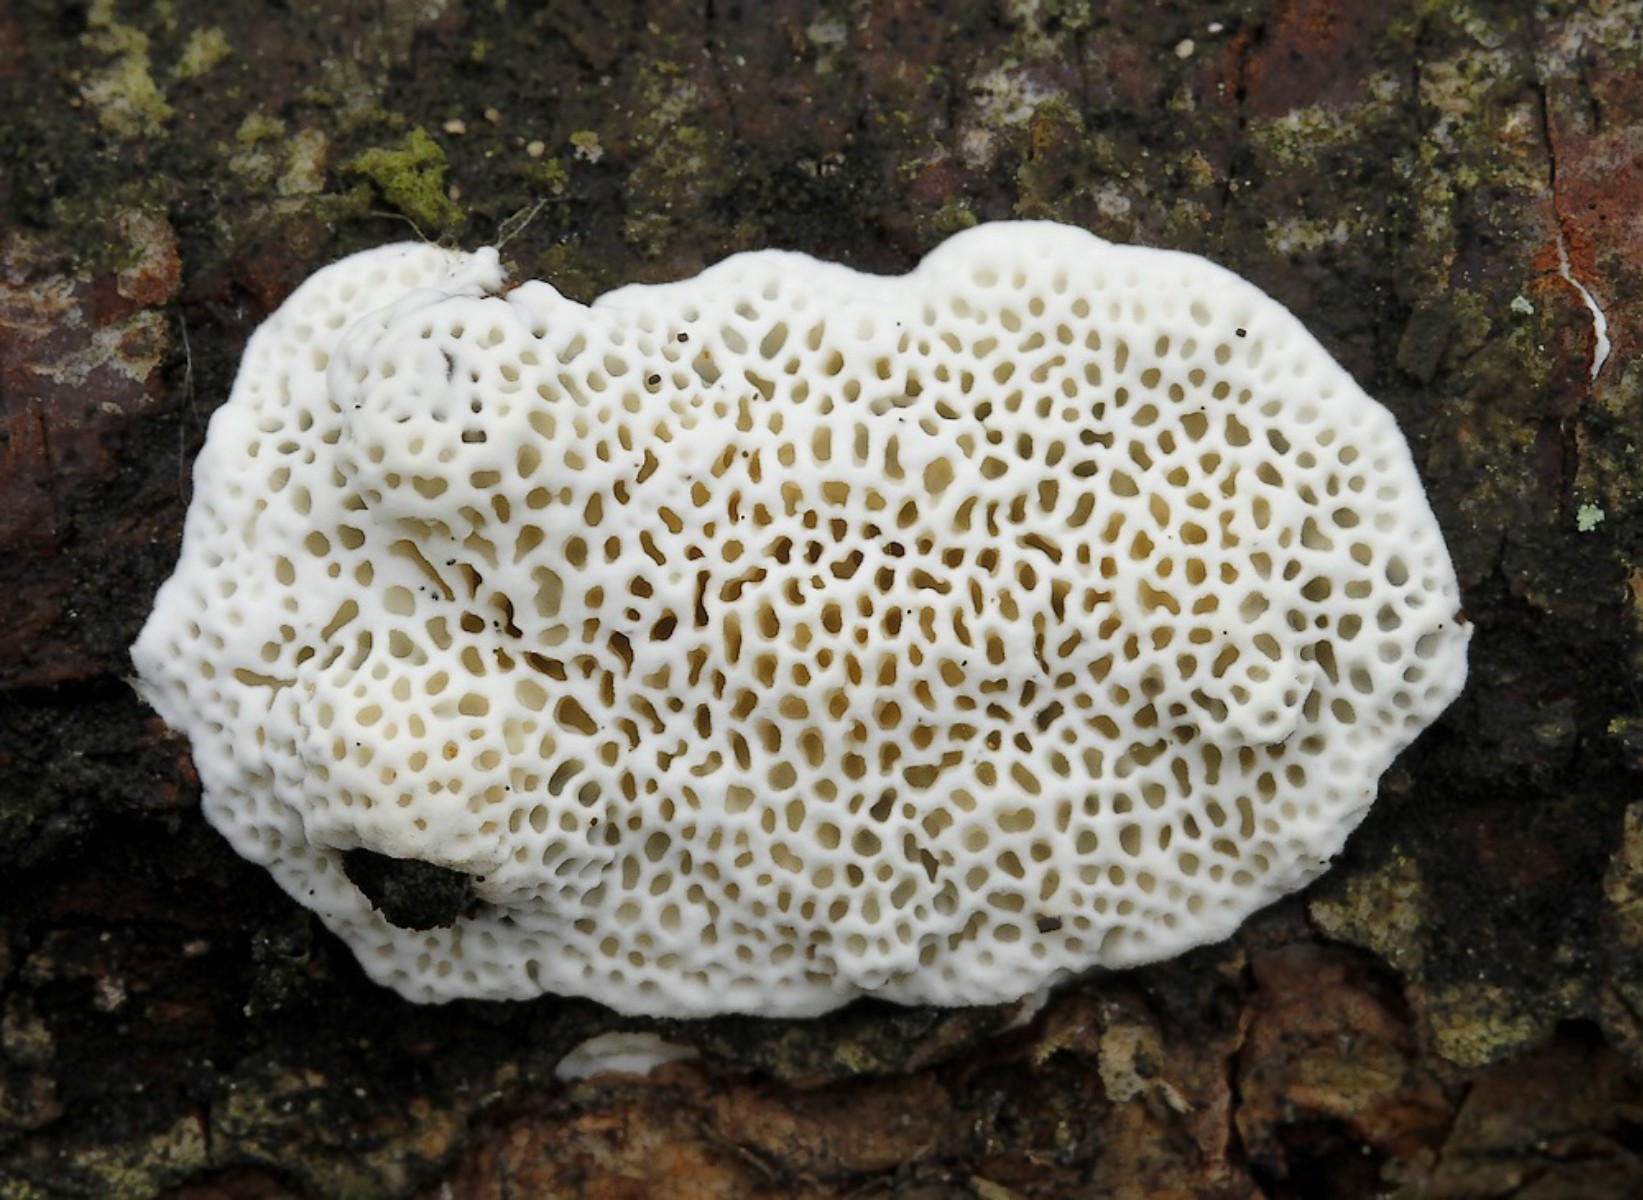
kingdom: Fungi
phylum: Basidiomycota
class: Agaricomycetes
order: Polyporales
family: Fomitopsidaceae
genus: Fomitopsis
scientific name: Fomitopsis
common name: fyrre-skiveporesvamp
